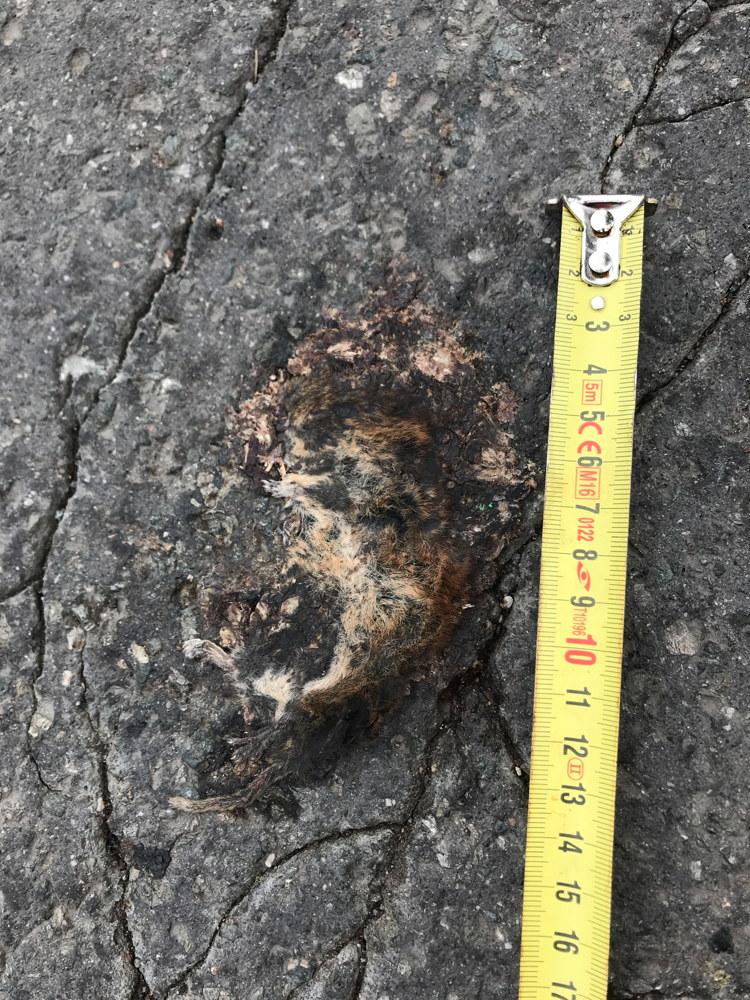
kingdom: Animalia
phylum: Chordata
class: Mammalia
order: Rodentia
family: Cricetidae
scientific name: Cricetidae
